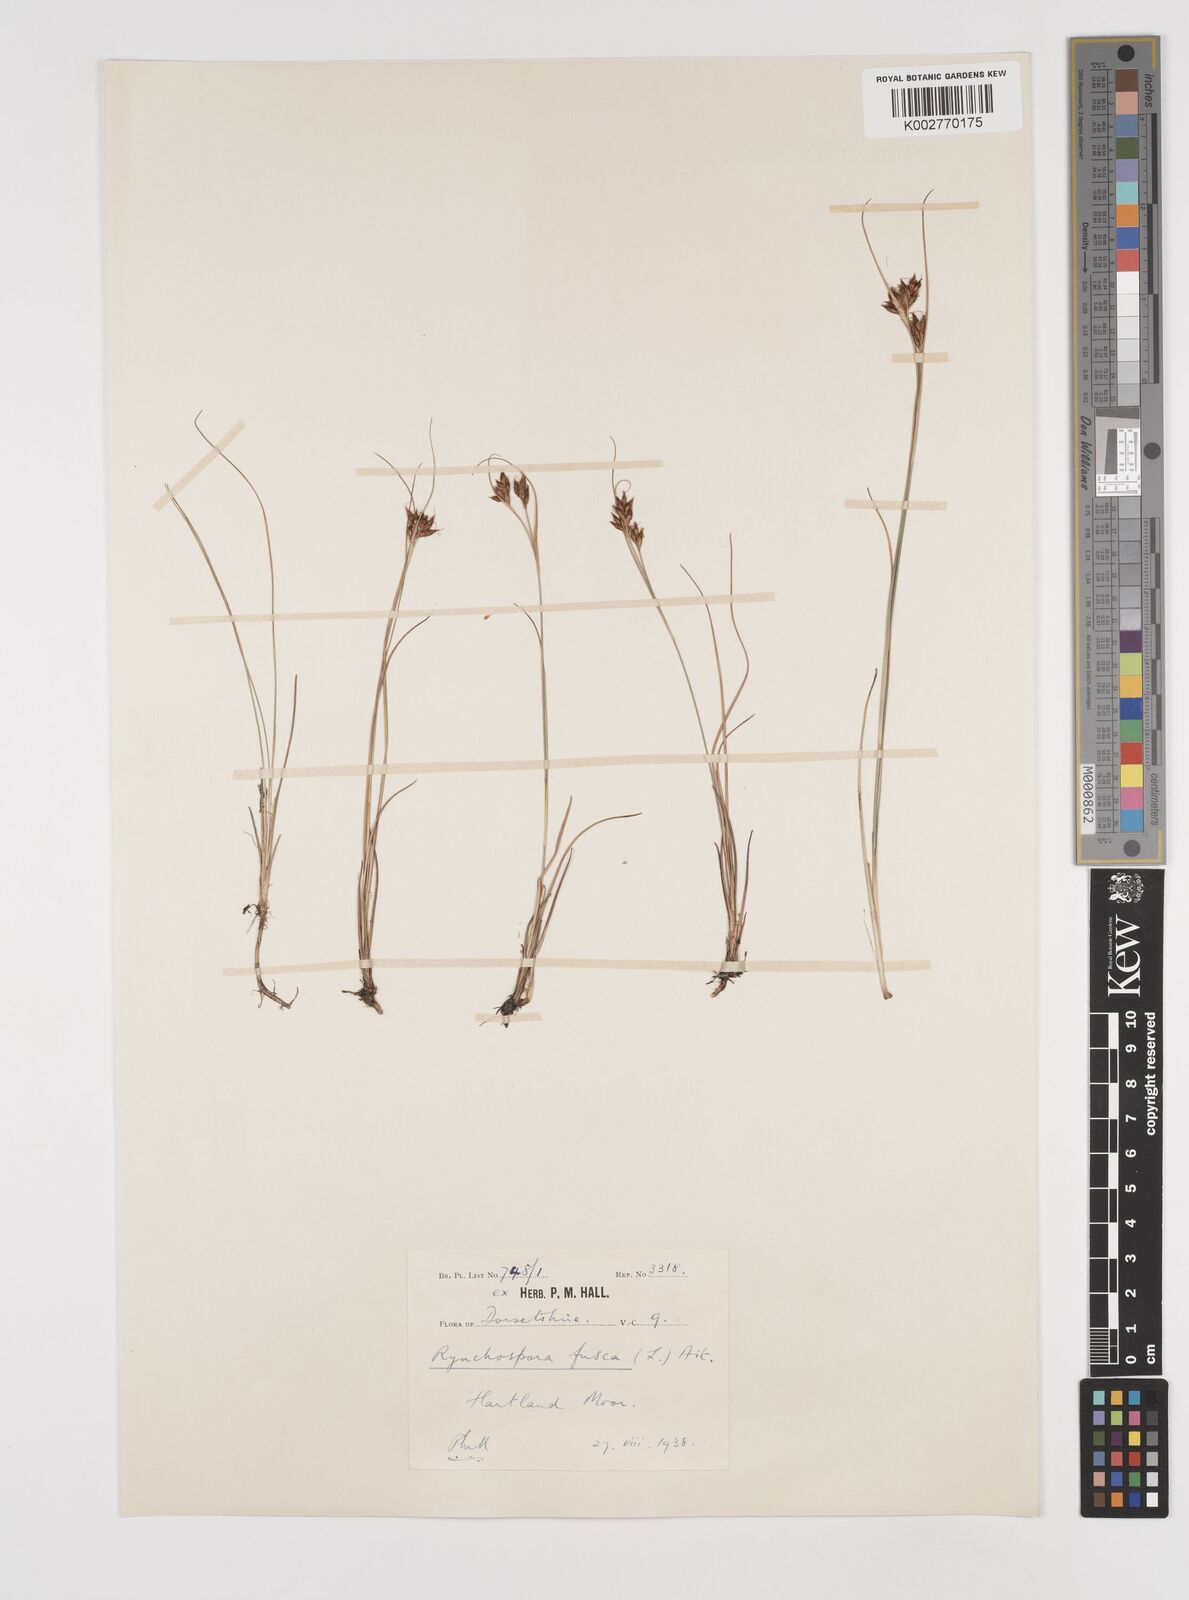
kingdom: Plantae
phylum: Tracheophyta
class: Liliopsida
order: Poales
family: Cyperaceae
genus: Rhynchospora
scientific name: Rhynchospora fusca
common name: Brown beak-sedge
